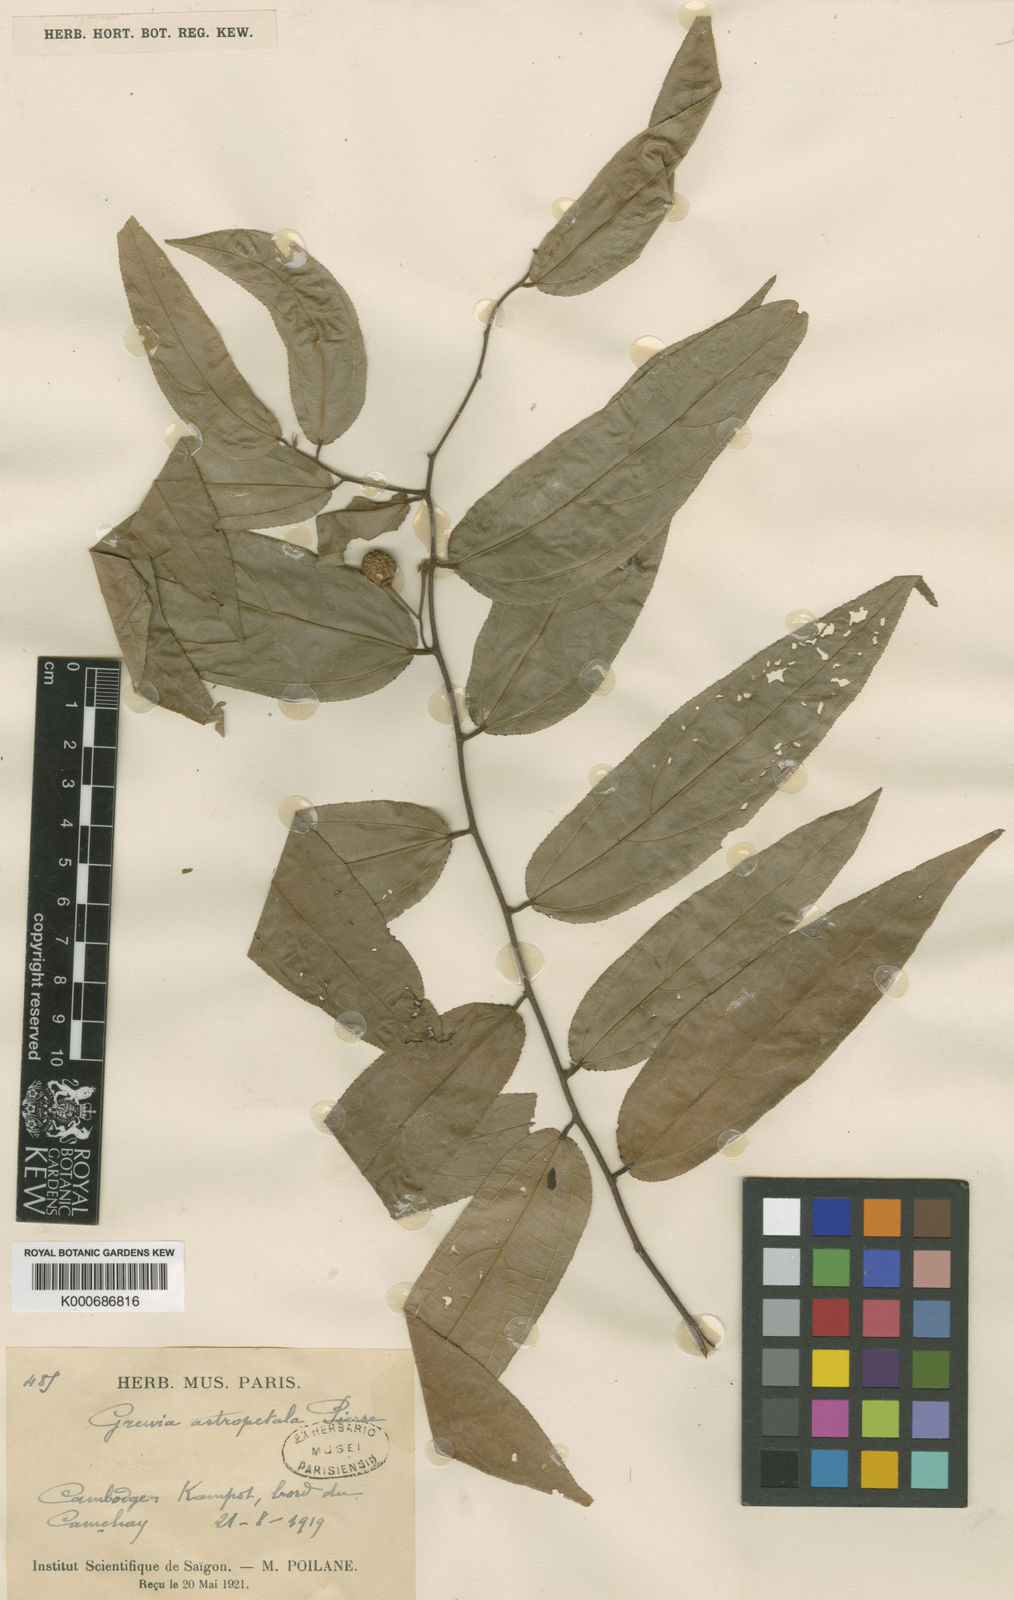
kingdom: Plantae
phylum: Tracheophyta
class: Magnoliopsida
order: Malvales
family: Malvaceae
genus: Grewia
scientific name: Grewia astropetala
